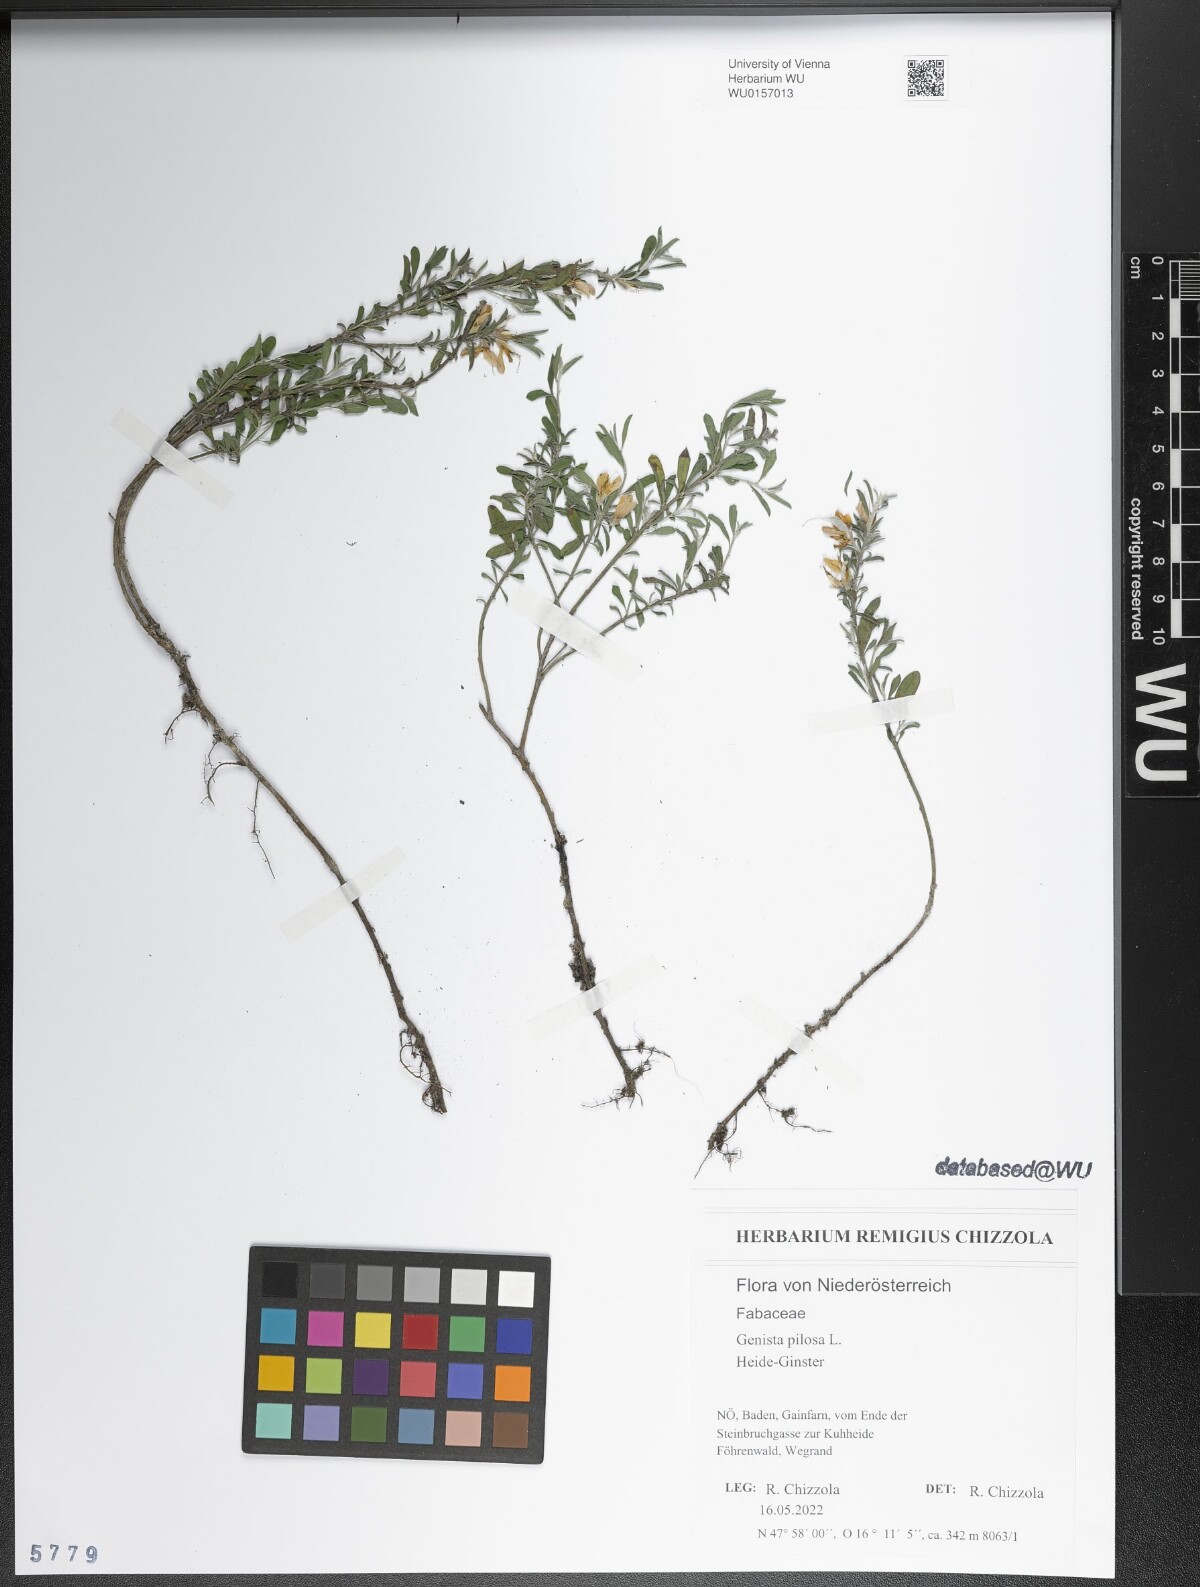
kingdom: Plantae
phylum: Tracheophyta
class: Magnoliopsida
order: Fabales
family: Fabaceae
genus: Genista
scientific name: Genista pilosa
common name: Hairy greenweed
